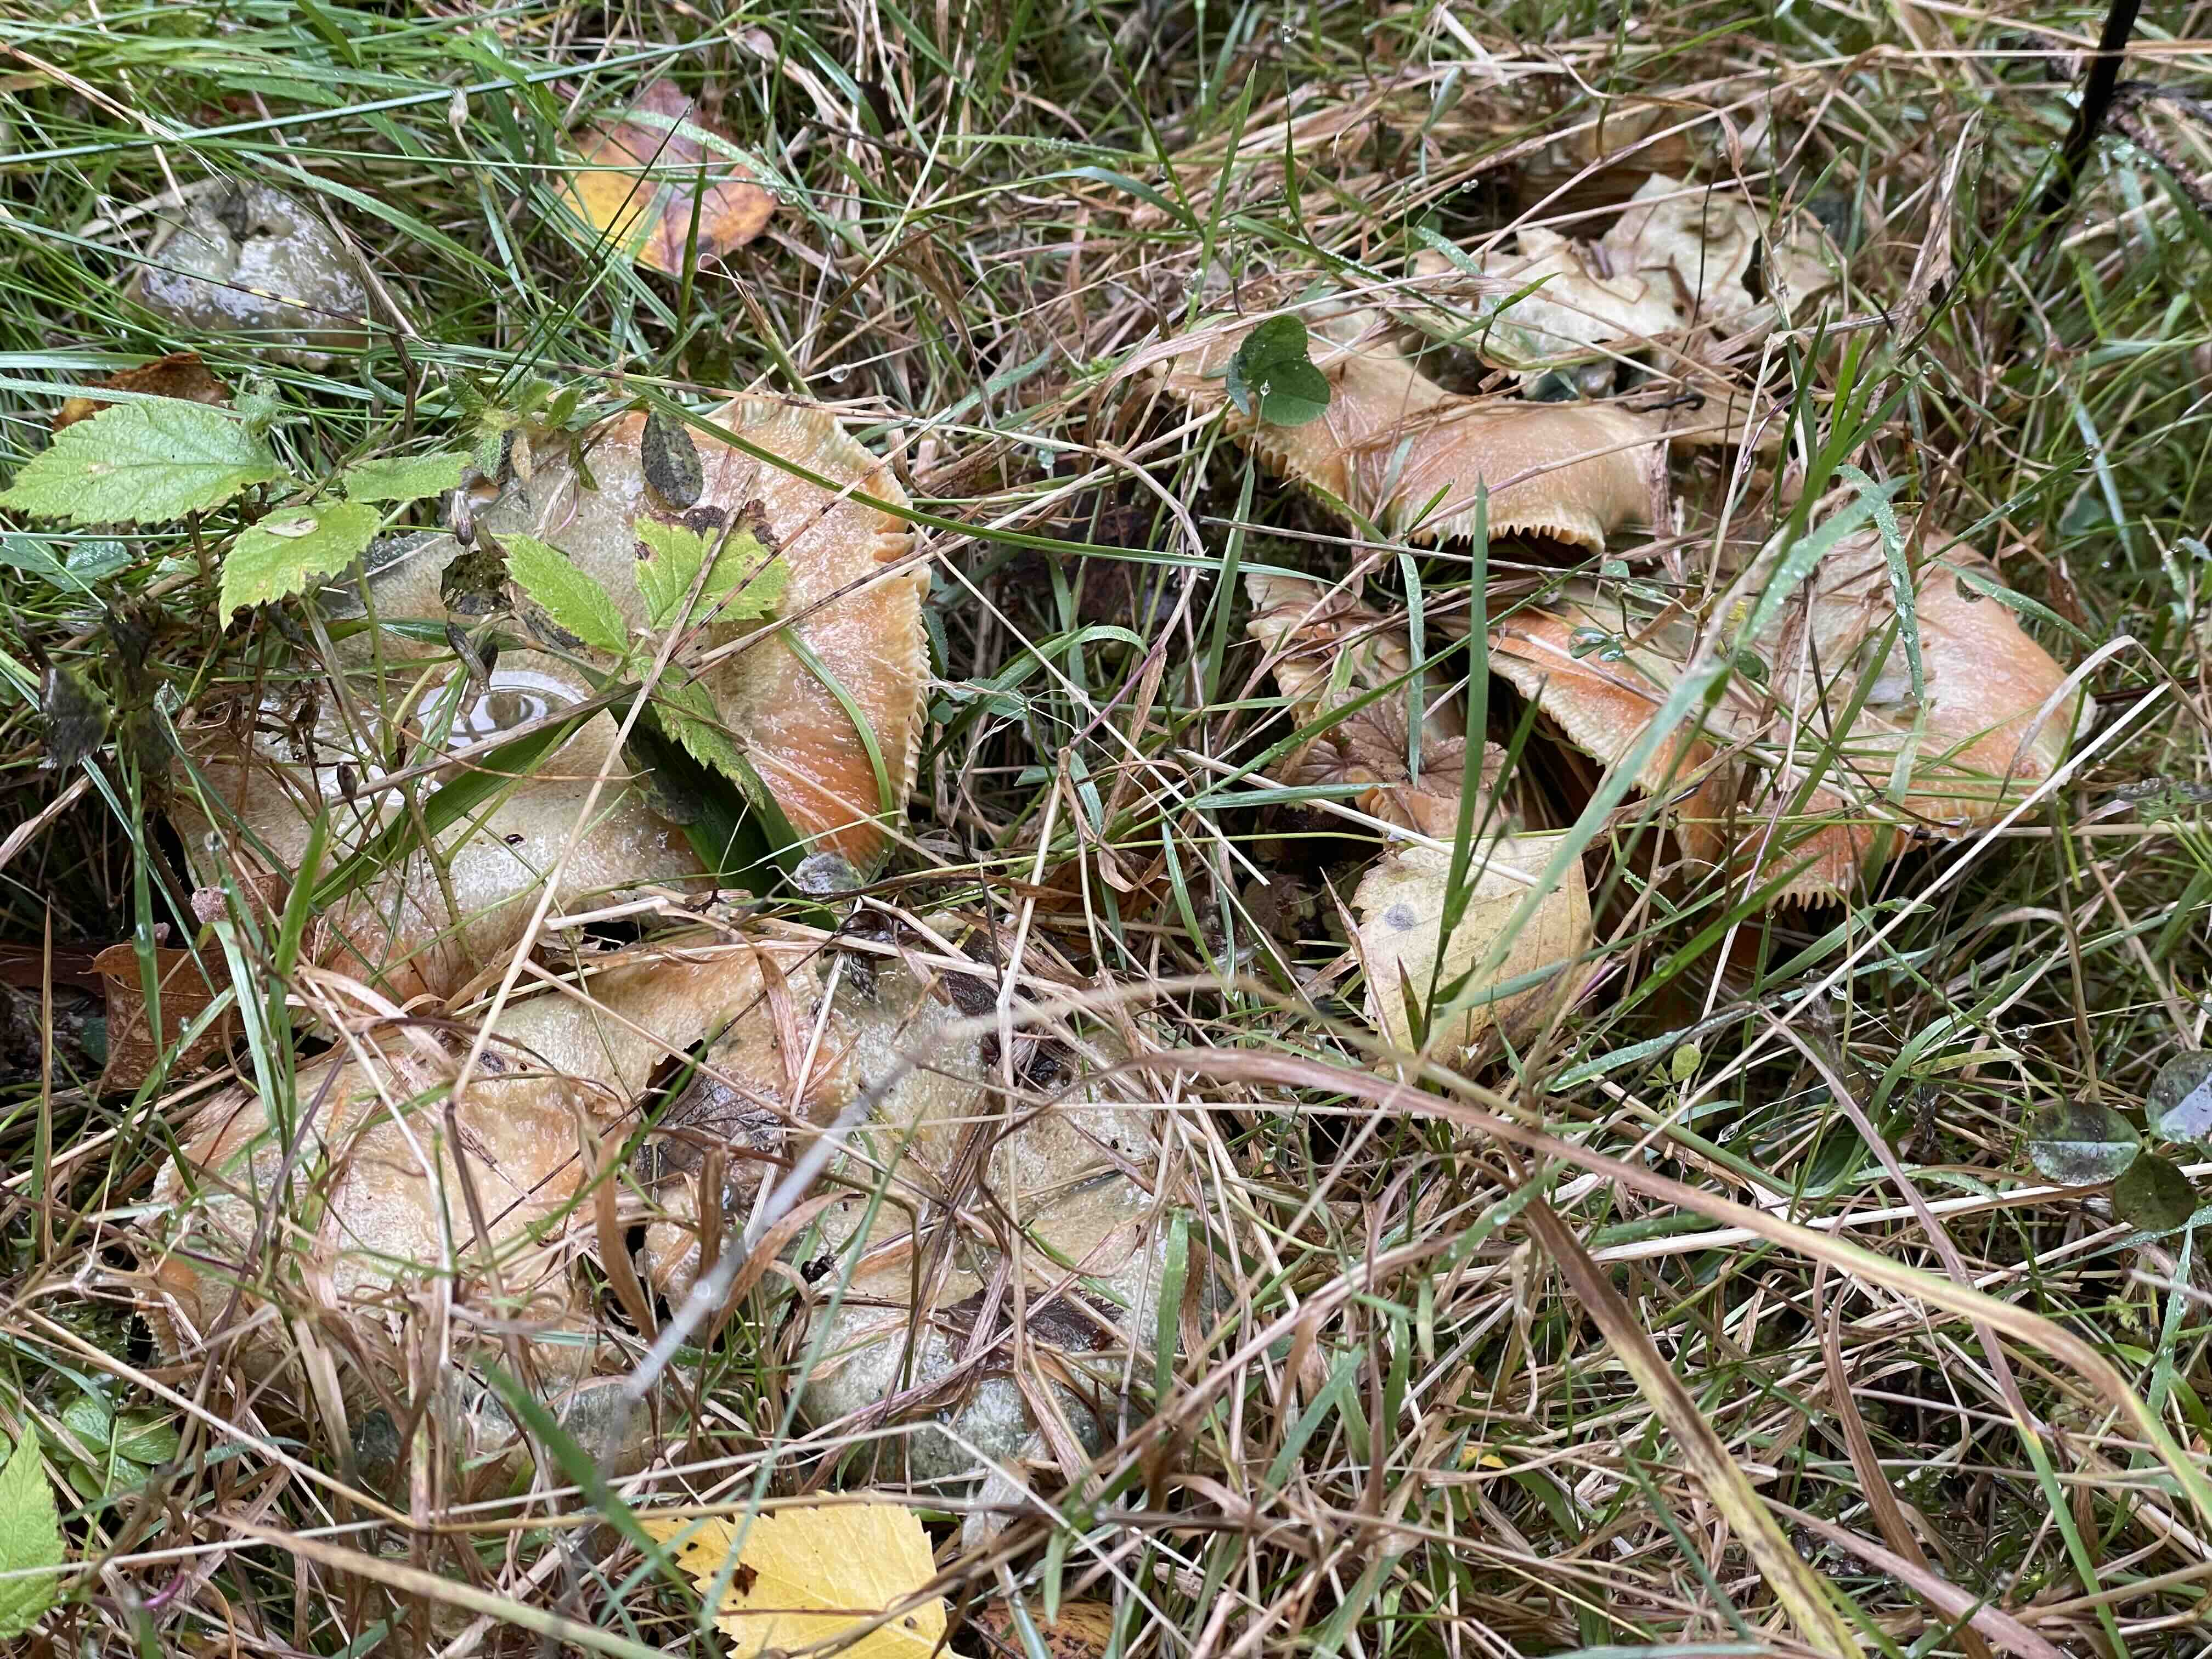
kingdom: Fungi
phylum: Basidiomycota
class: Agaricomycetes
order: Russulales
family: Russulaceae
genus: Lactarius
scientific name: Lactarius deterrimus
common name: gran-mælkehat
